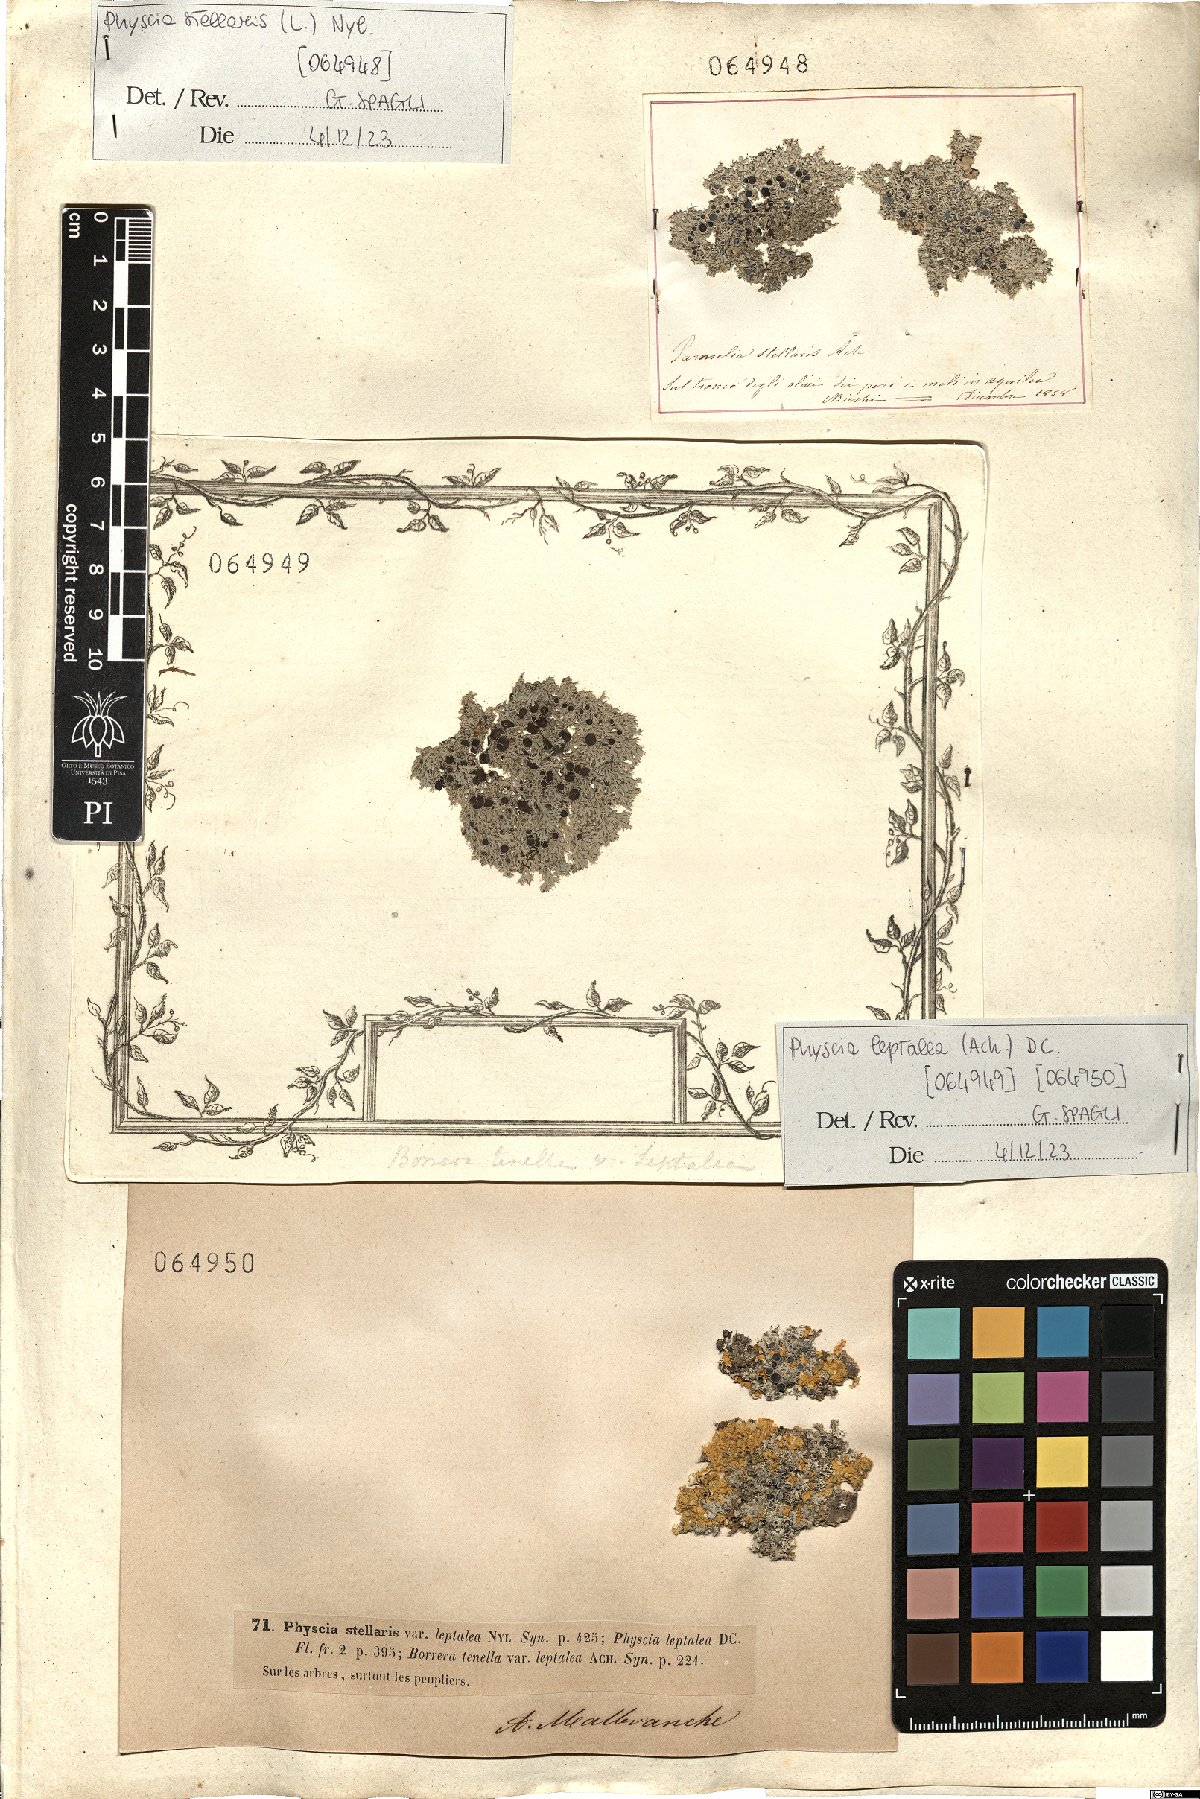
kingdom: Fungi
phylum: Ascomycota
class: Lecanoromycetes
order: Caliciales
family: Physciaceae
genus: Physcia
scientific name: Physcia stellaris
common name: Star rosette lichen
